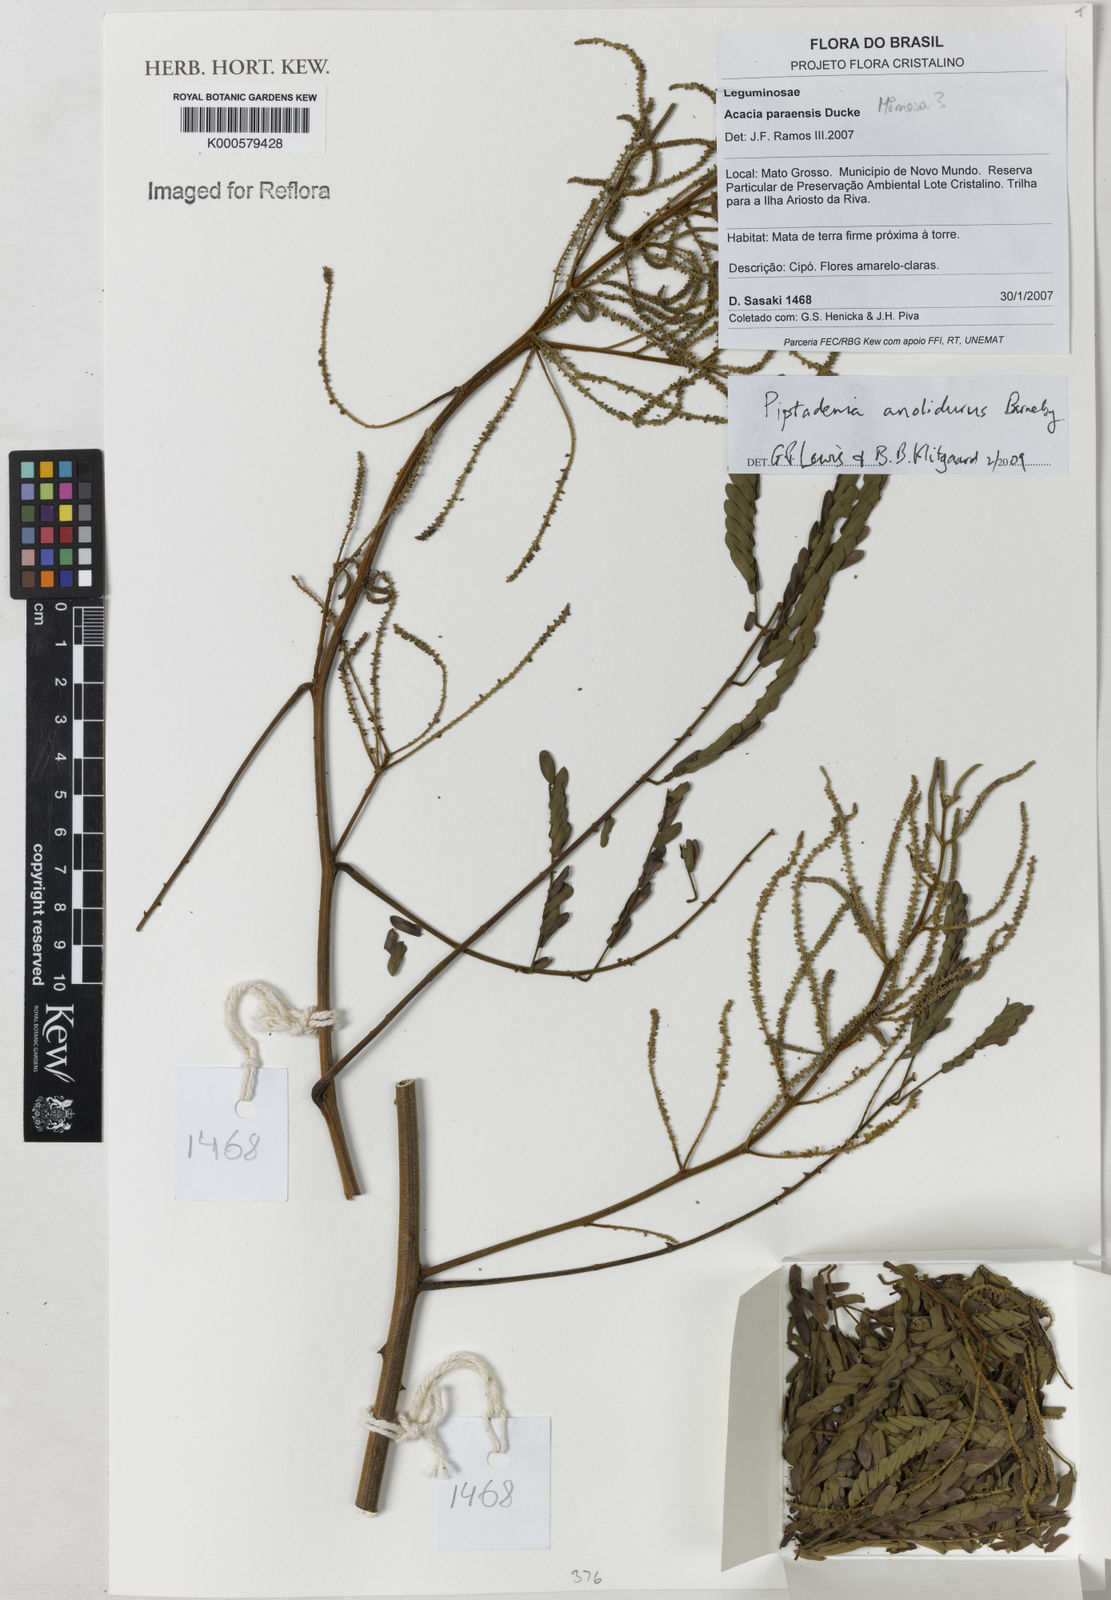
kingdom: Plantae
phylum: Tracheophyta
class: Magnoliopsida
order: Fabales
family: Fabaceae
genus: Piptadenia
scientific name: Piptadenia anolidurus
